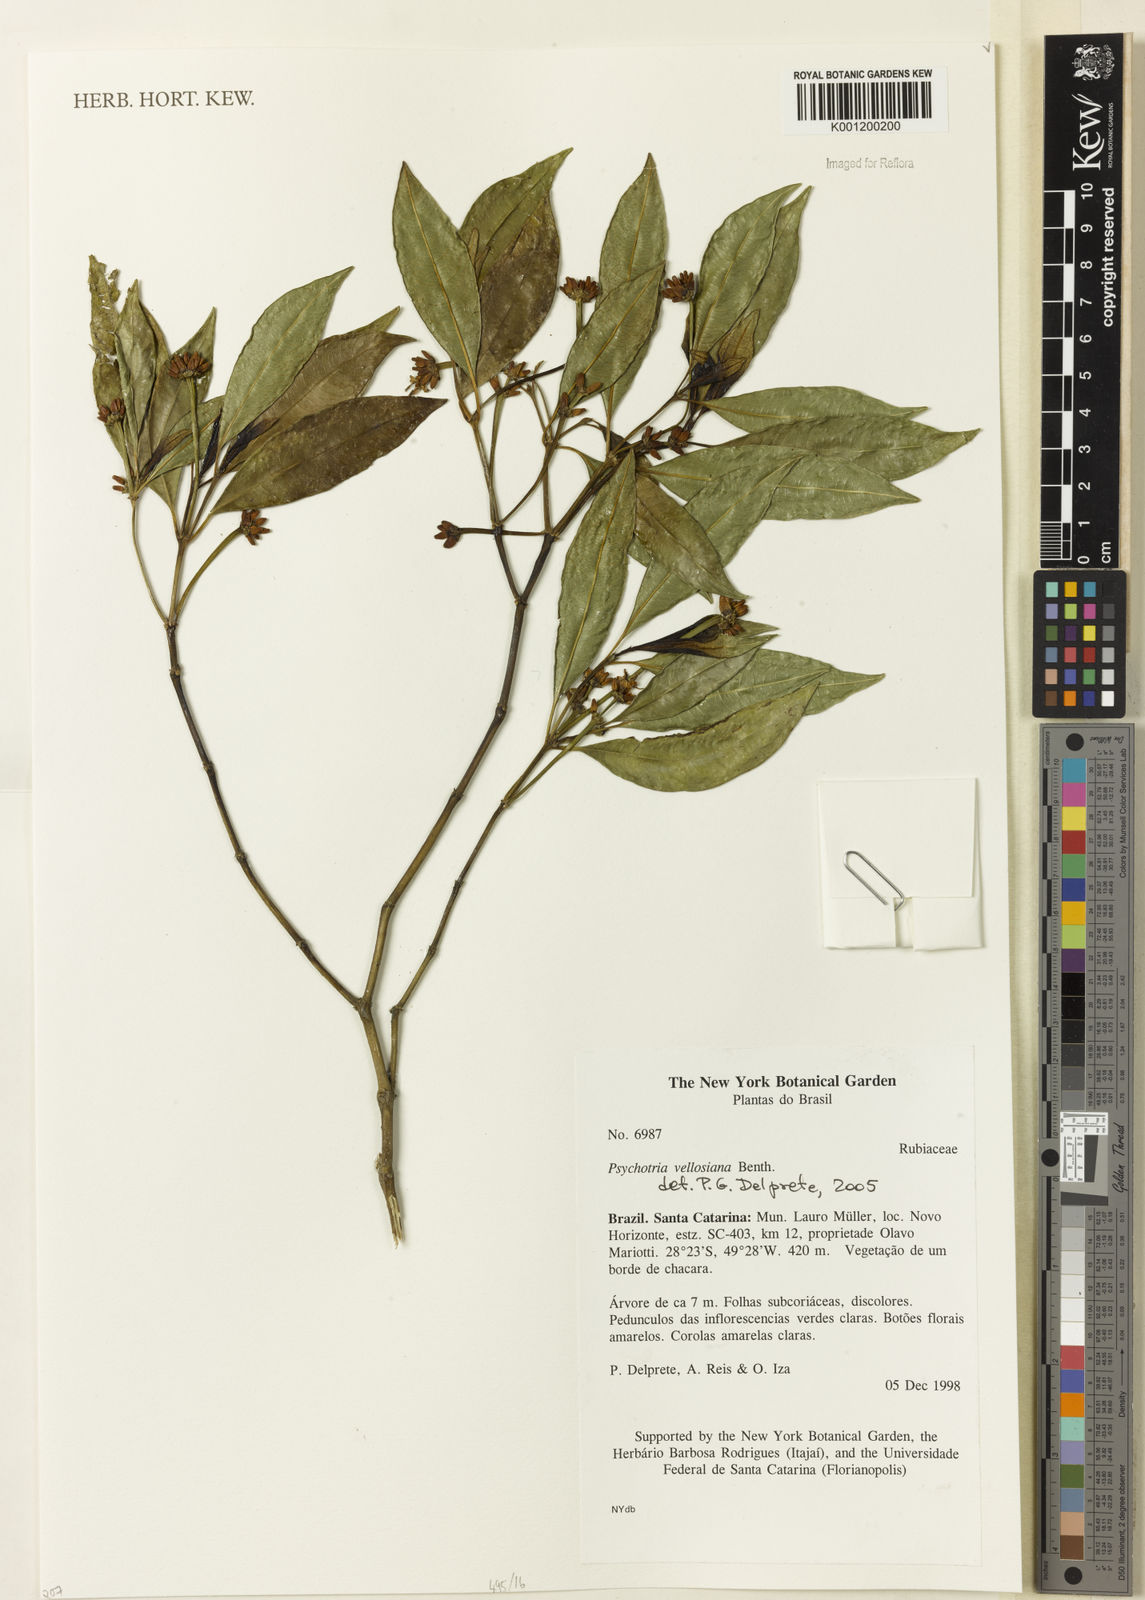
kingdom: Plantae
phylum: Tracheophyta
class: Magnoliopsida
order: Gentianales
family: Rubiaceae
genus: Rudgea
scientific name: Rudgea sessilis
